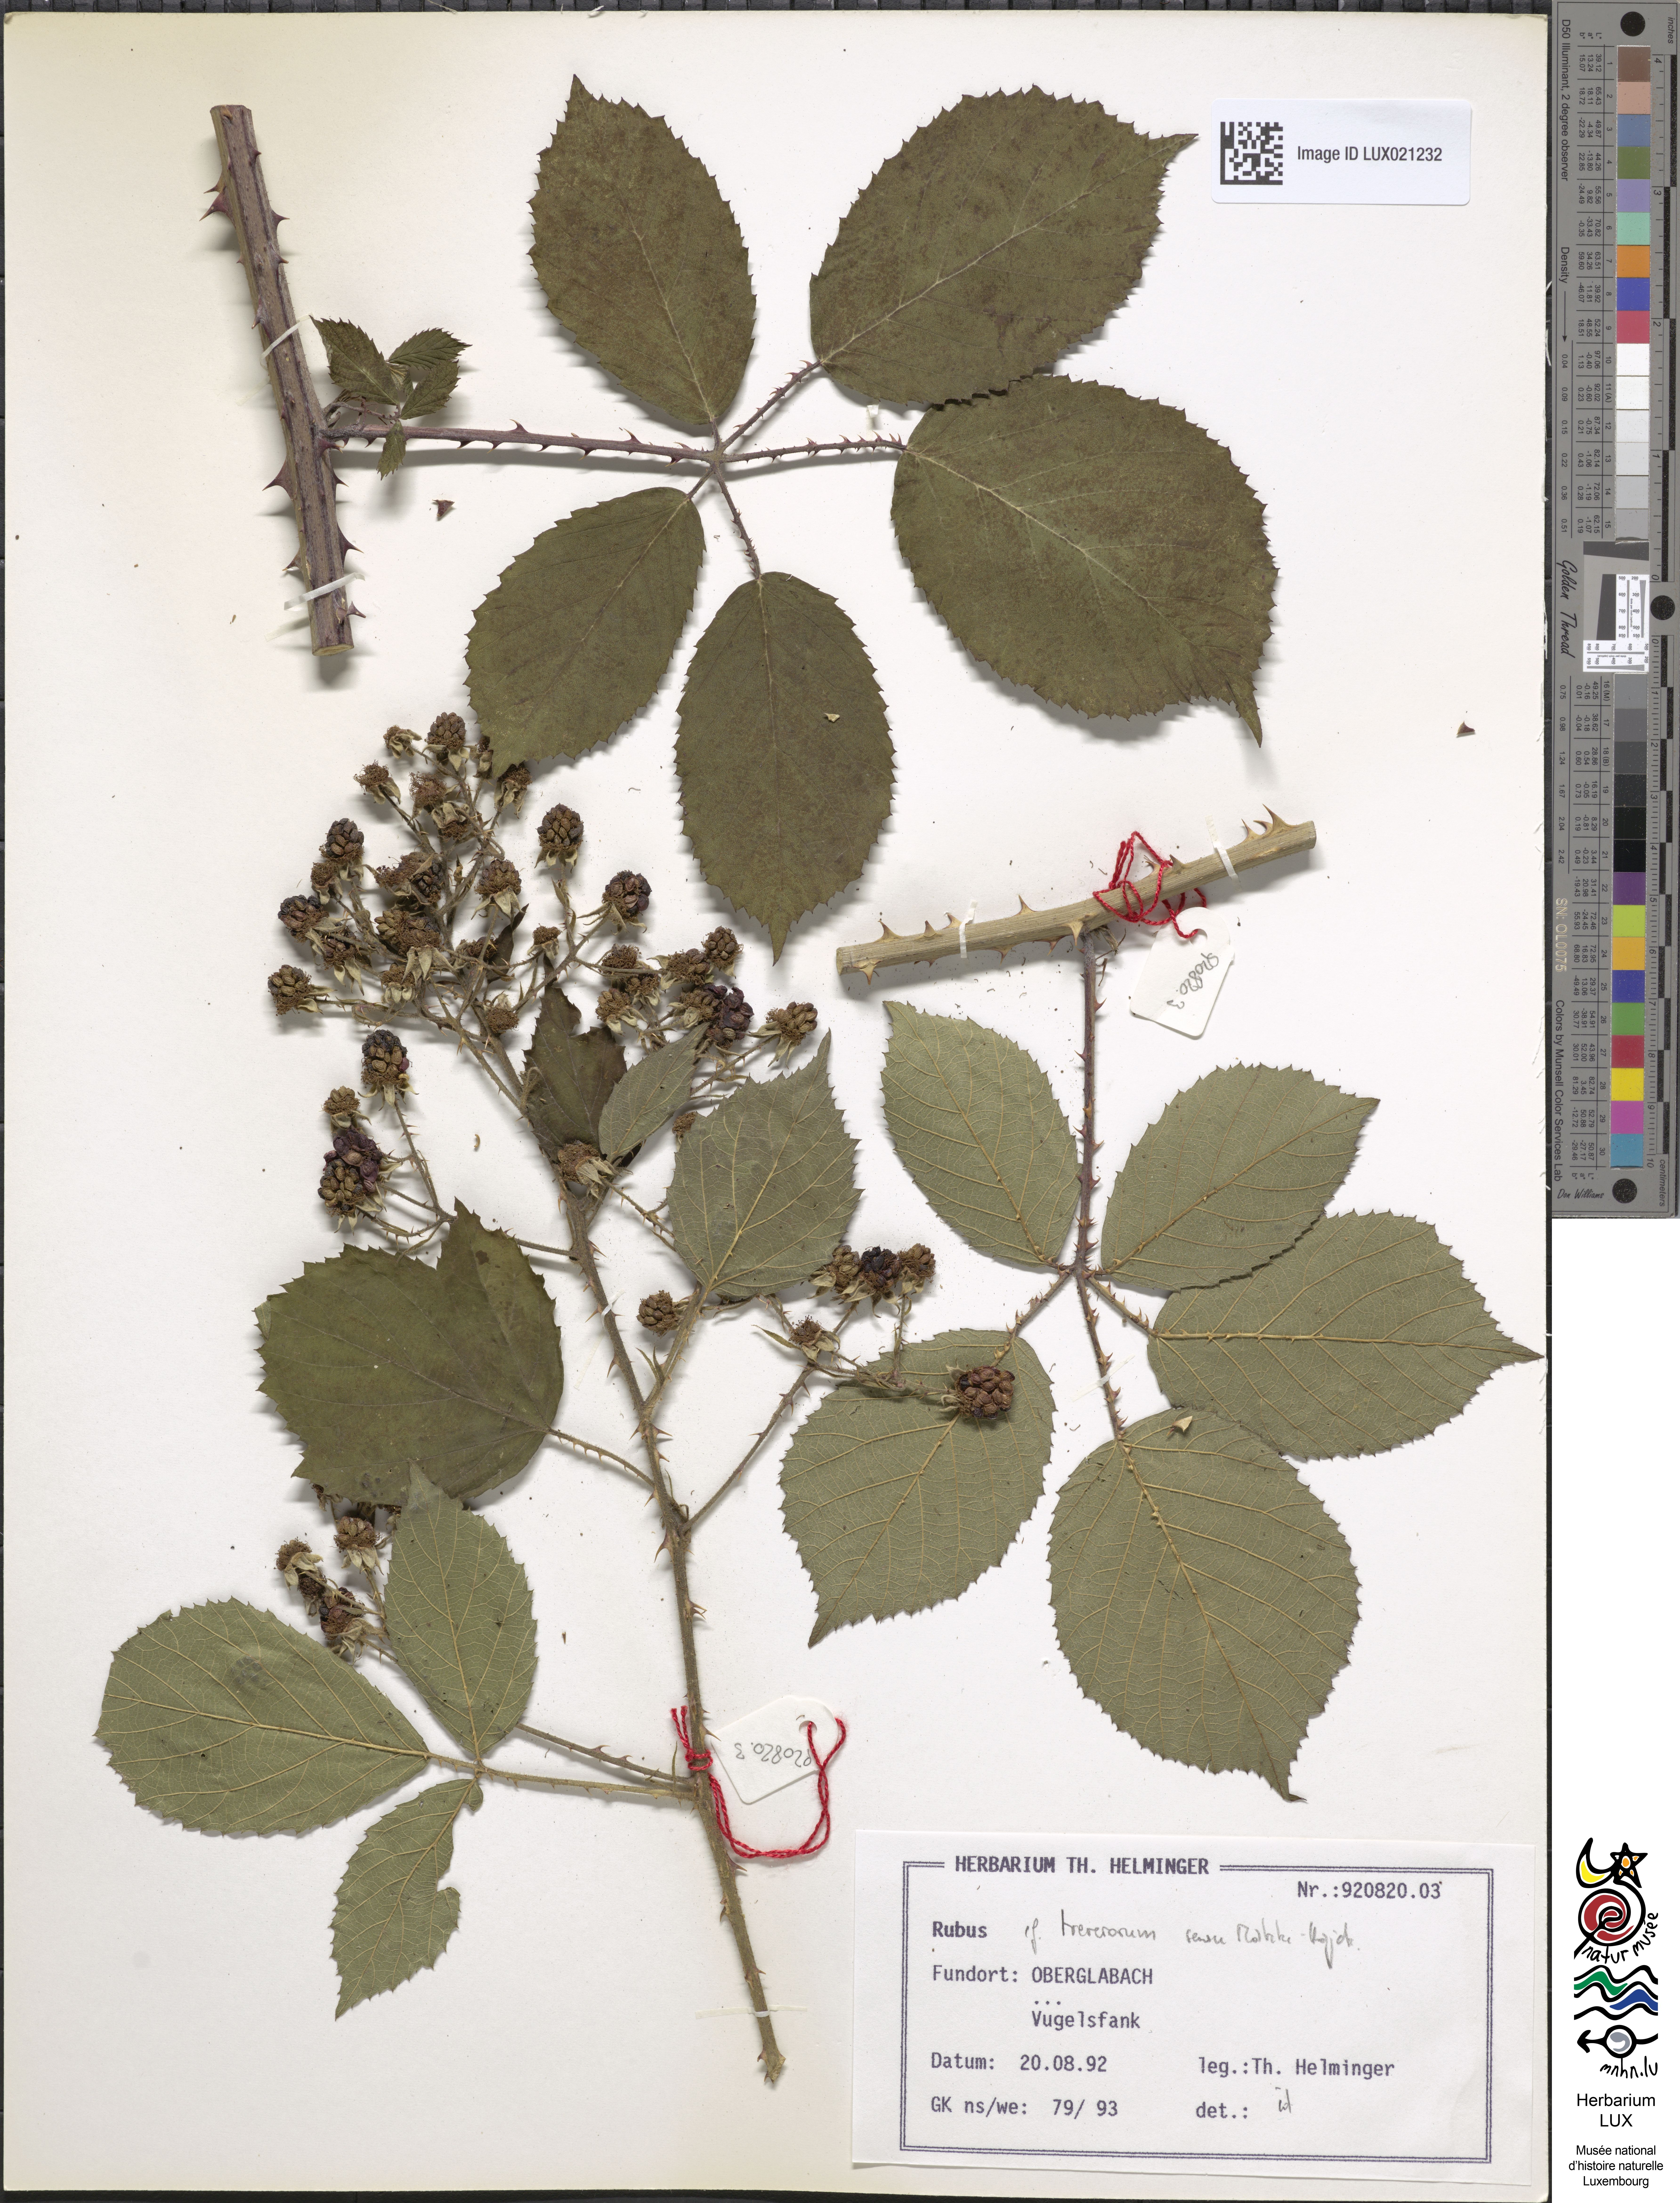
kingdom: Plantae
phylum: Tracheophyta
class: Magnoliopsida
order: Rosales
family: Rosaceae
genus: Rubus
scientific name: Rubus
